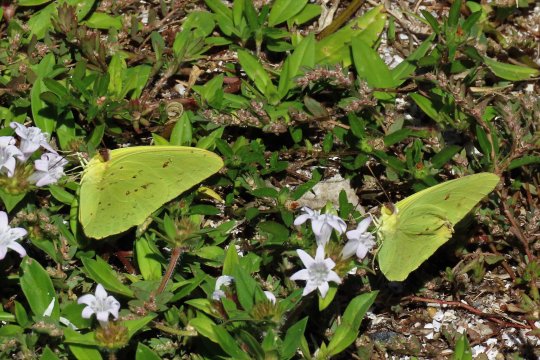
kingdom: Animalia
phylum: Arthropoda
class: Insecta
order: Lepidoptera
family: Pieridae
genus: Phoebis
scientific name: Phoebis sennae
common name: Cloudless Sulphur
